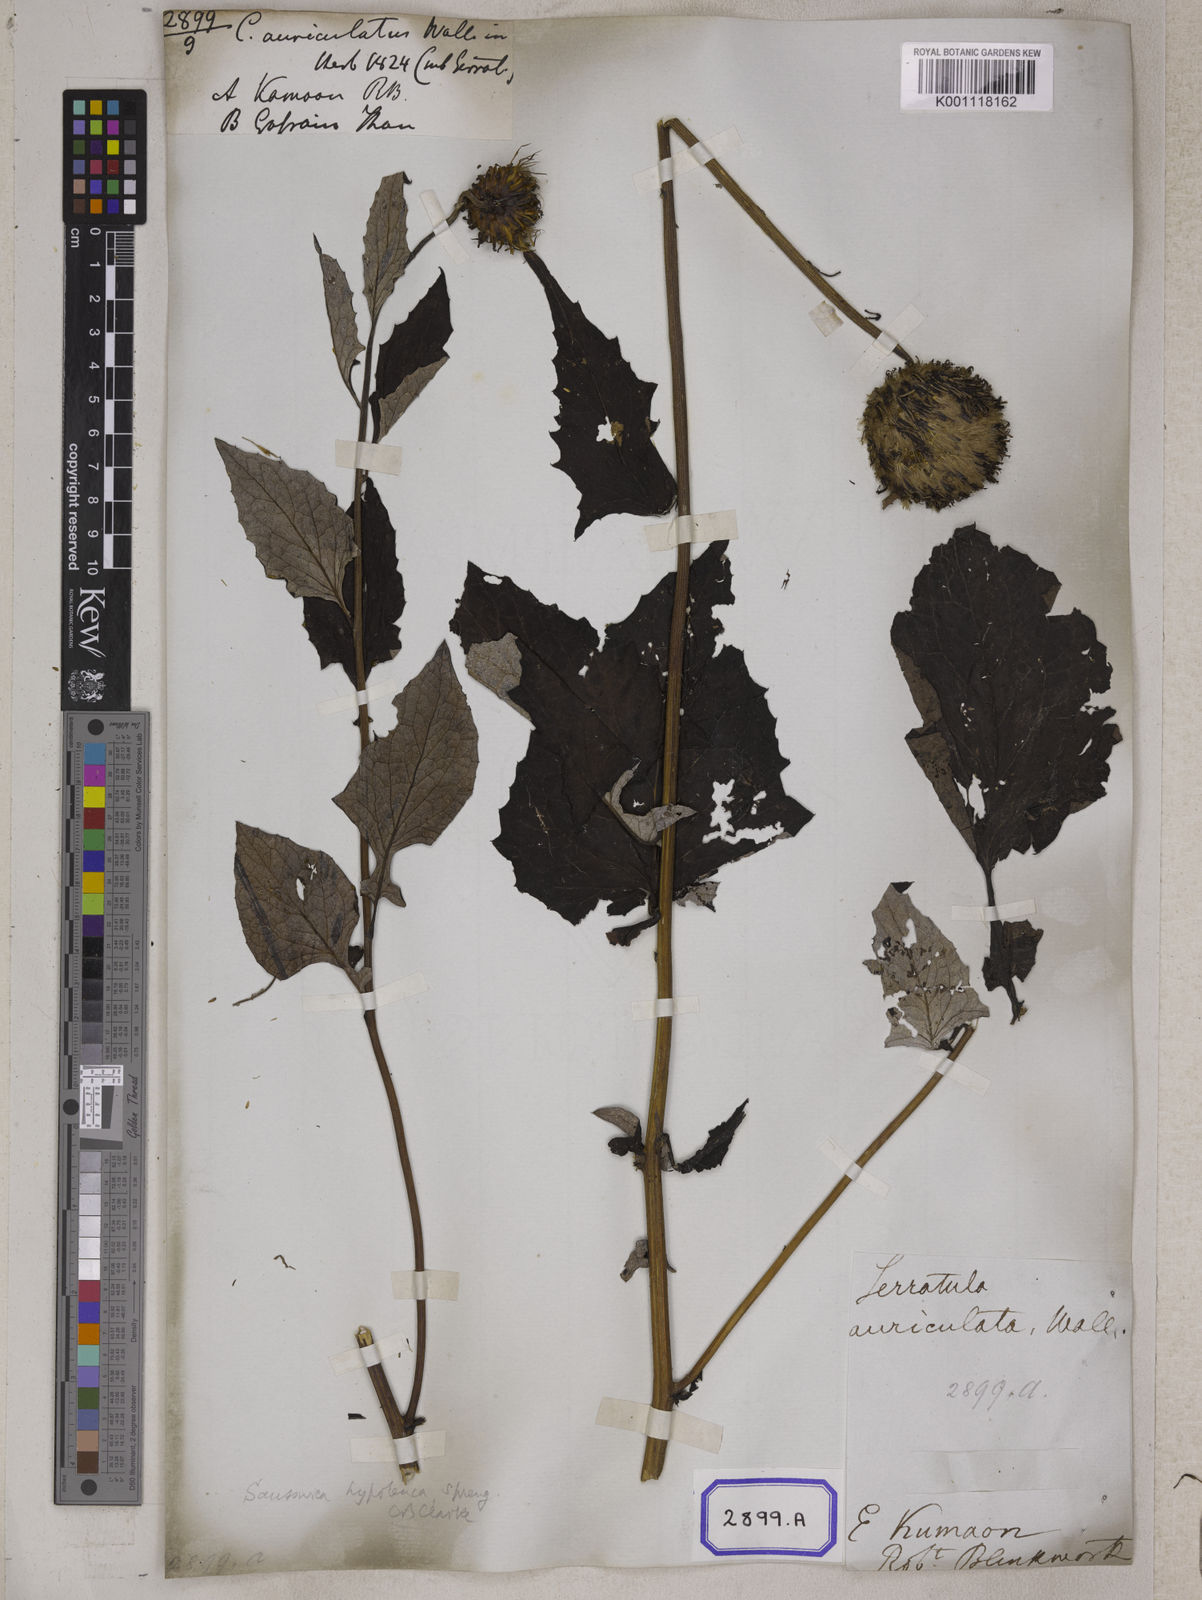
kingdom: Plantae
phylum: Tracheophyta
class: Magnoliopsida
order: Asterales
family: Asteraceae
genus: Jurinea
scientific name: Jurinea auriculata
